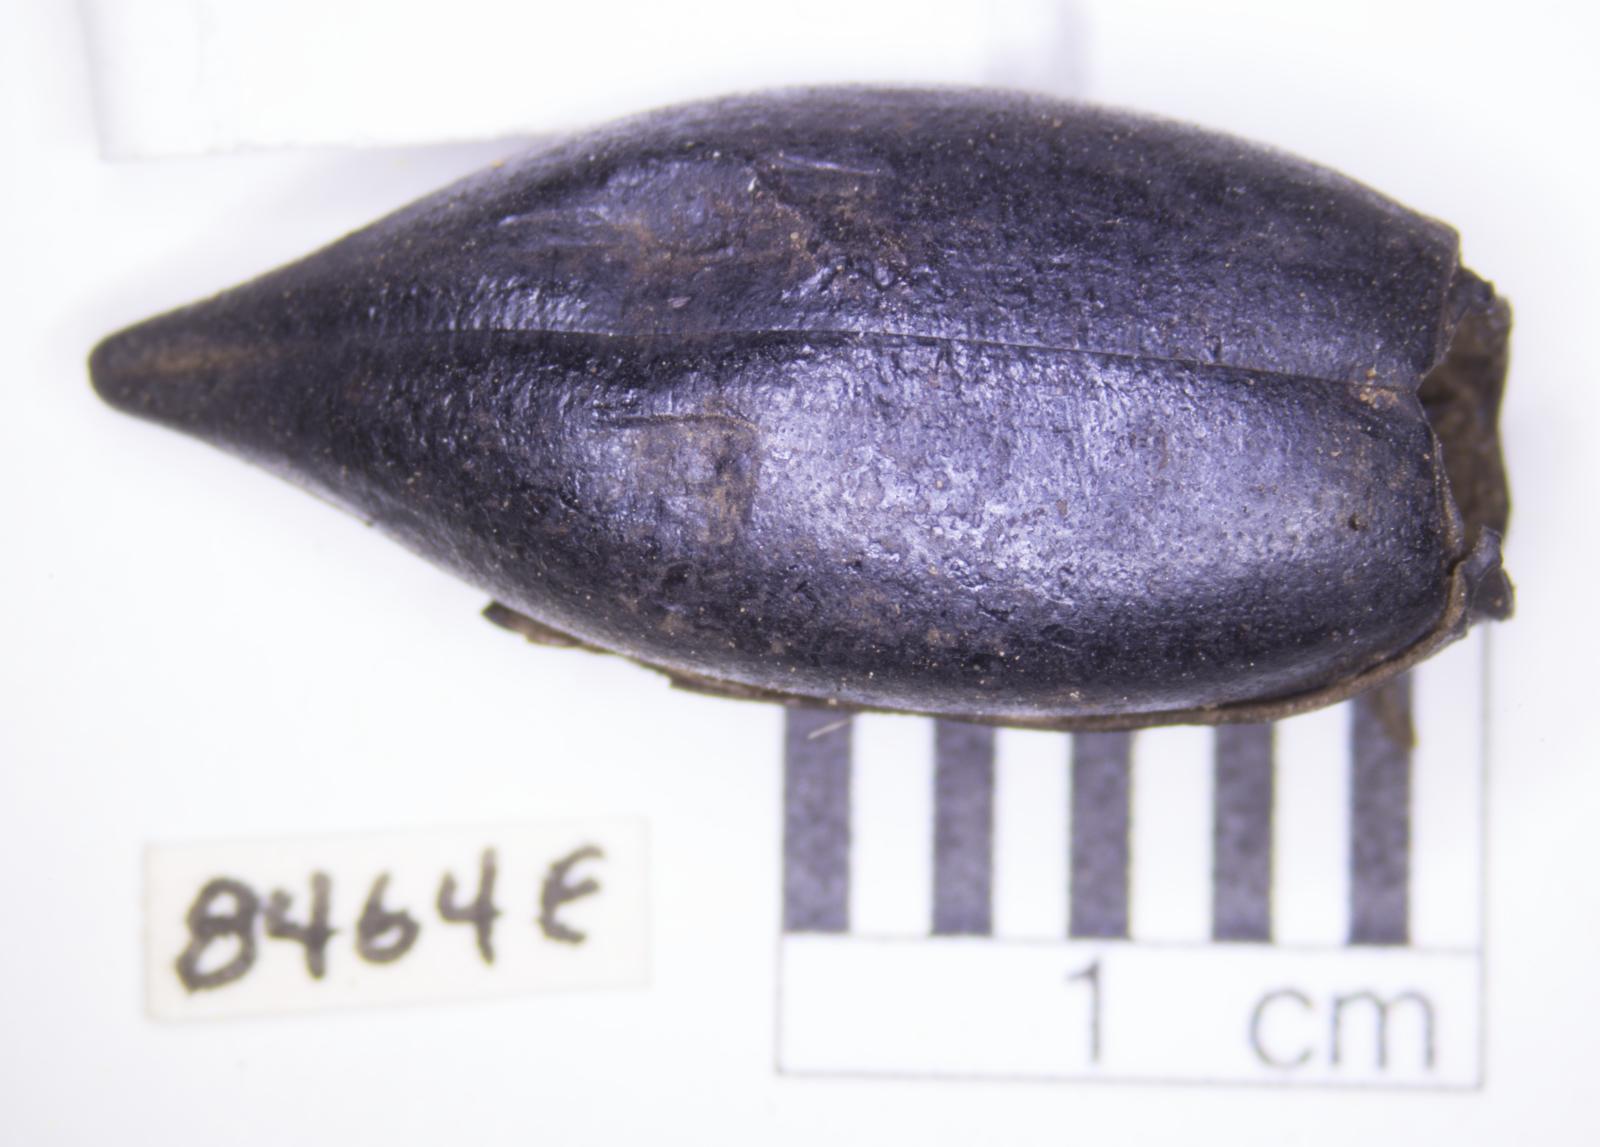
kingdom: Animalia
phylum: Arthropoda
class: Insecta
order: Coleoptera
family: Tenebrionidae
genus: Eleodes
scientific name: Eleodes acuticauda
